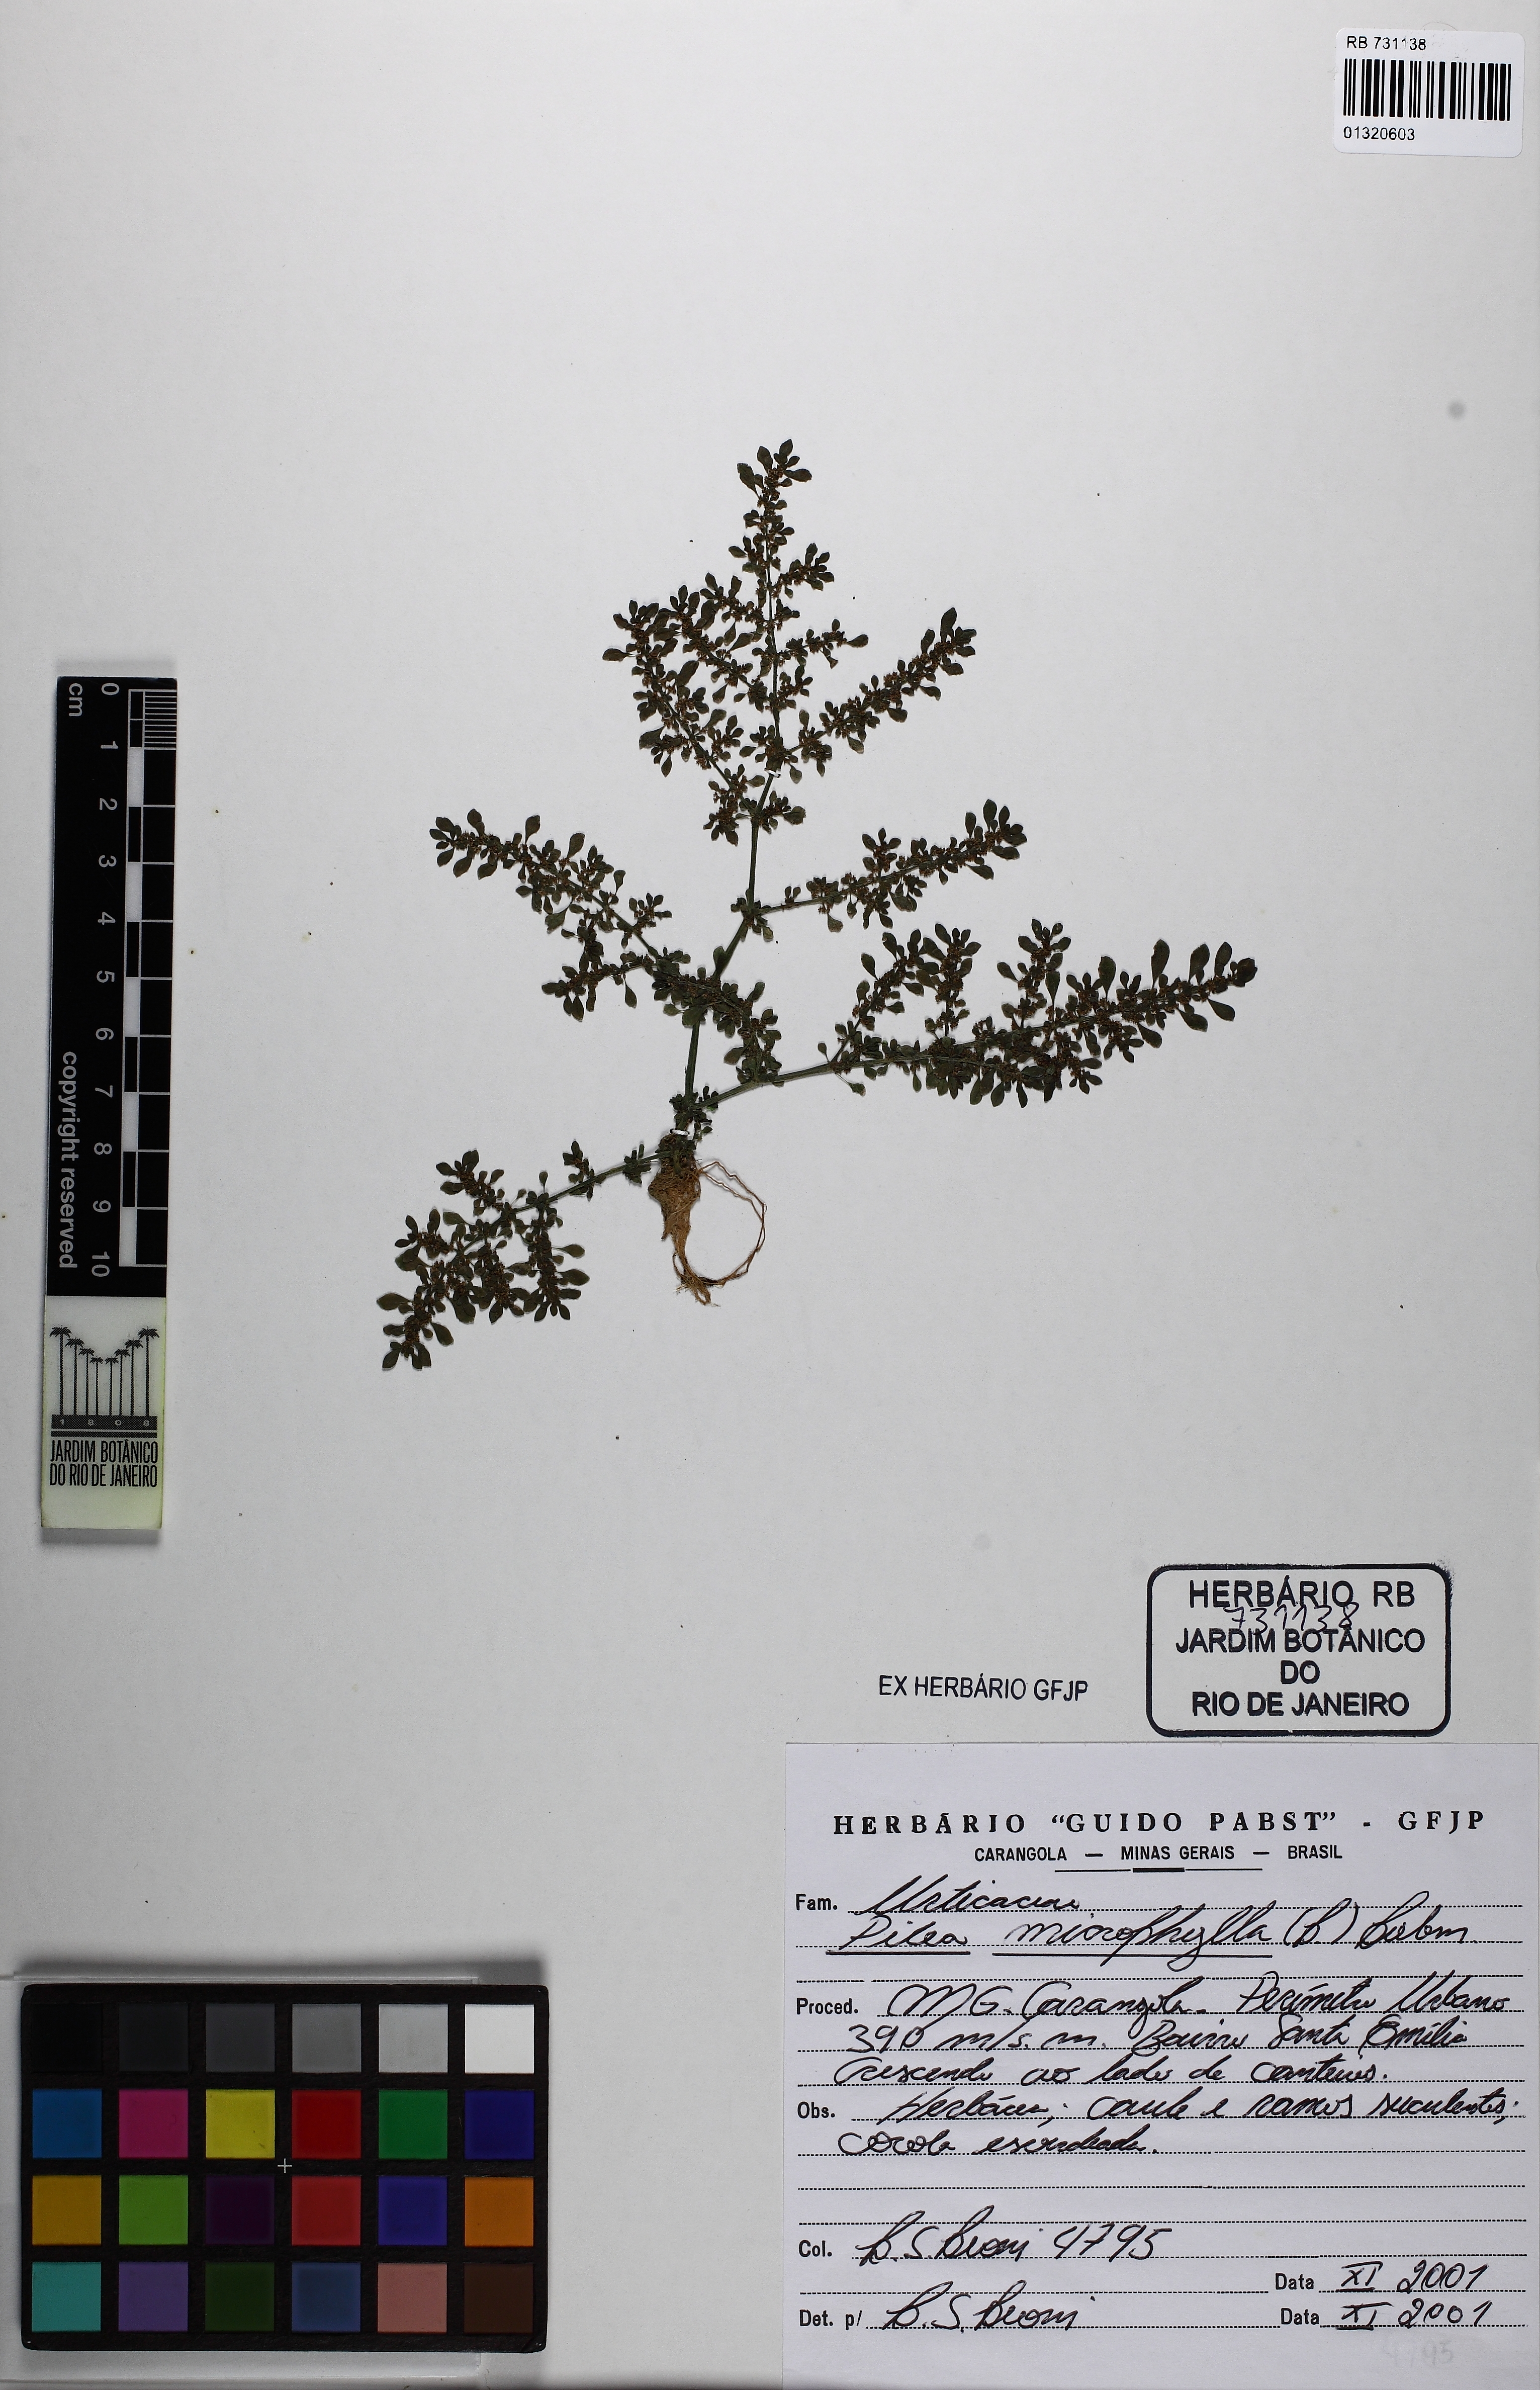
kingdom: Plantae
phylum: Tracheophyta
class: Magnoliopsida
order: Rosales
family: Urticaceae
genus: Pilea
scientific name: Pilea microphylla
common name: Artillery-plant
